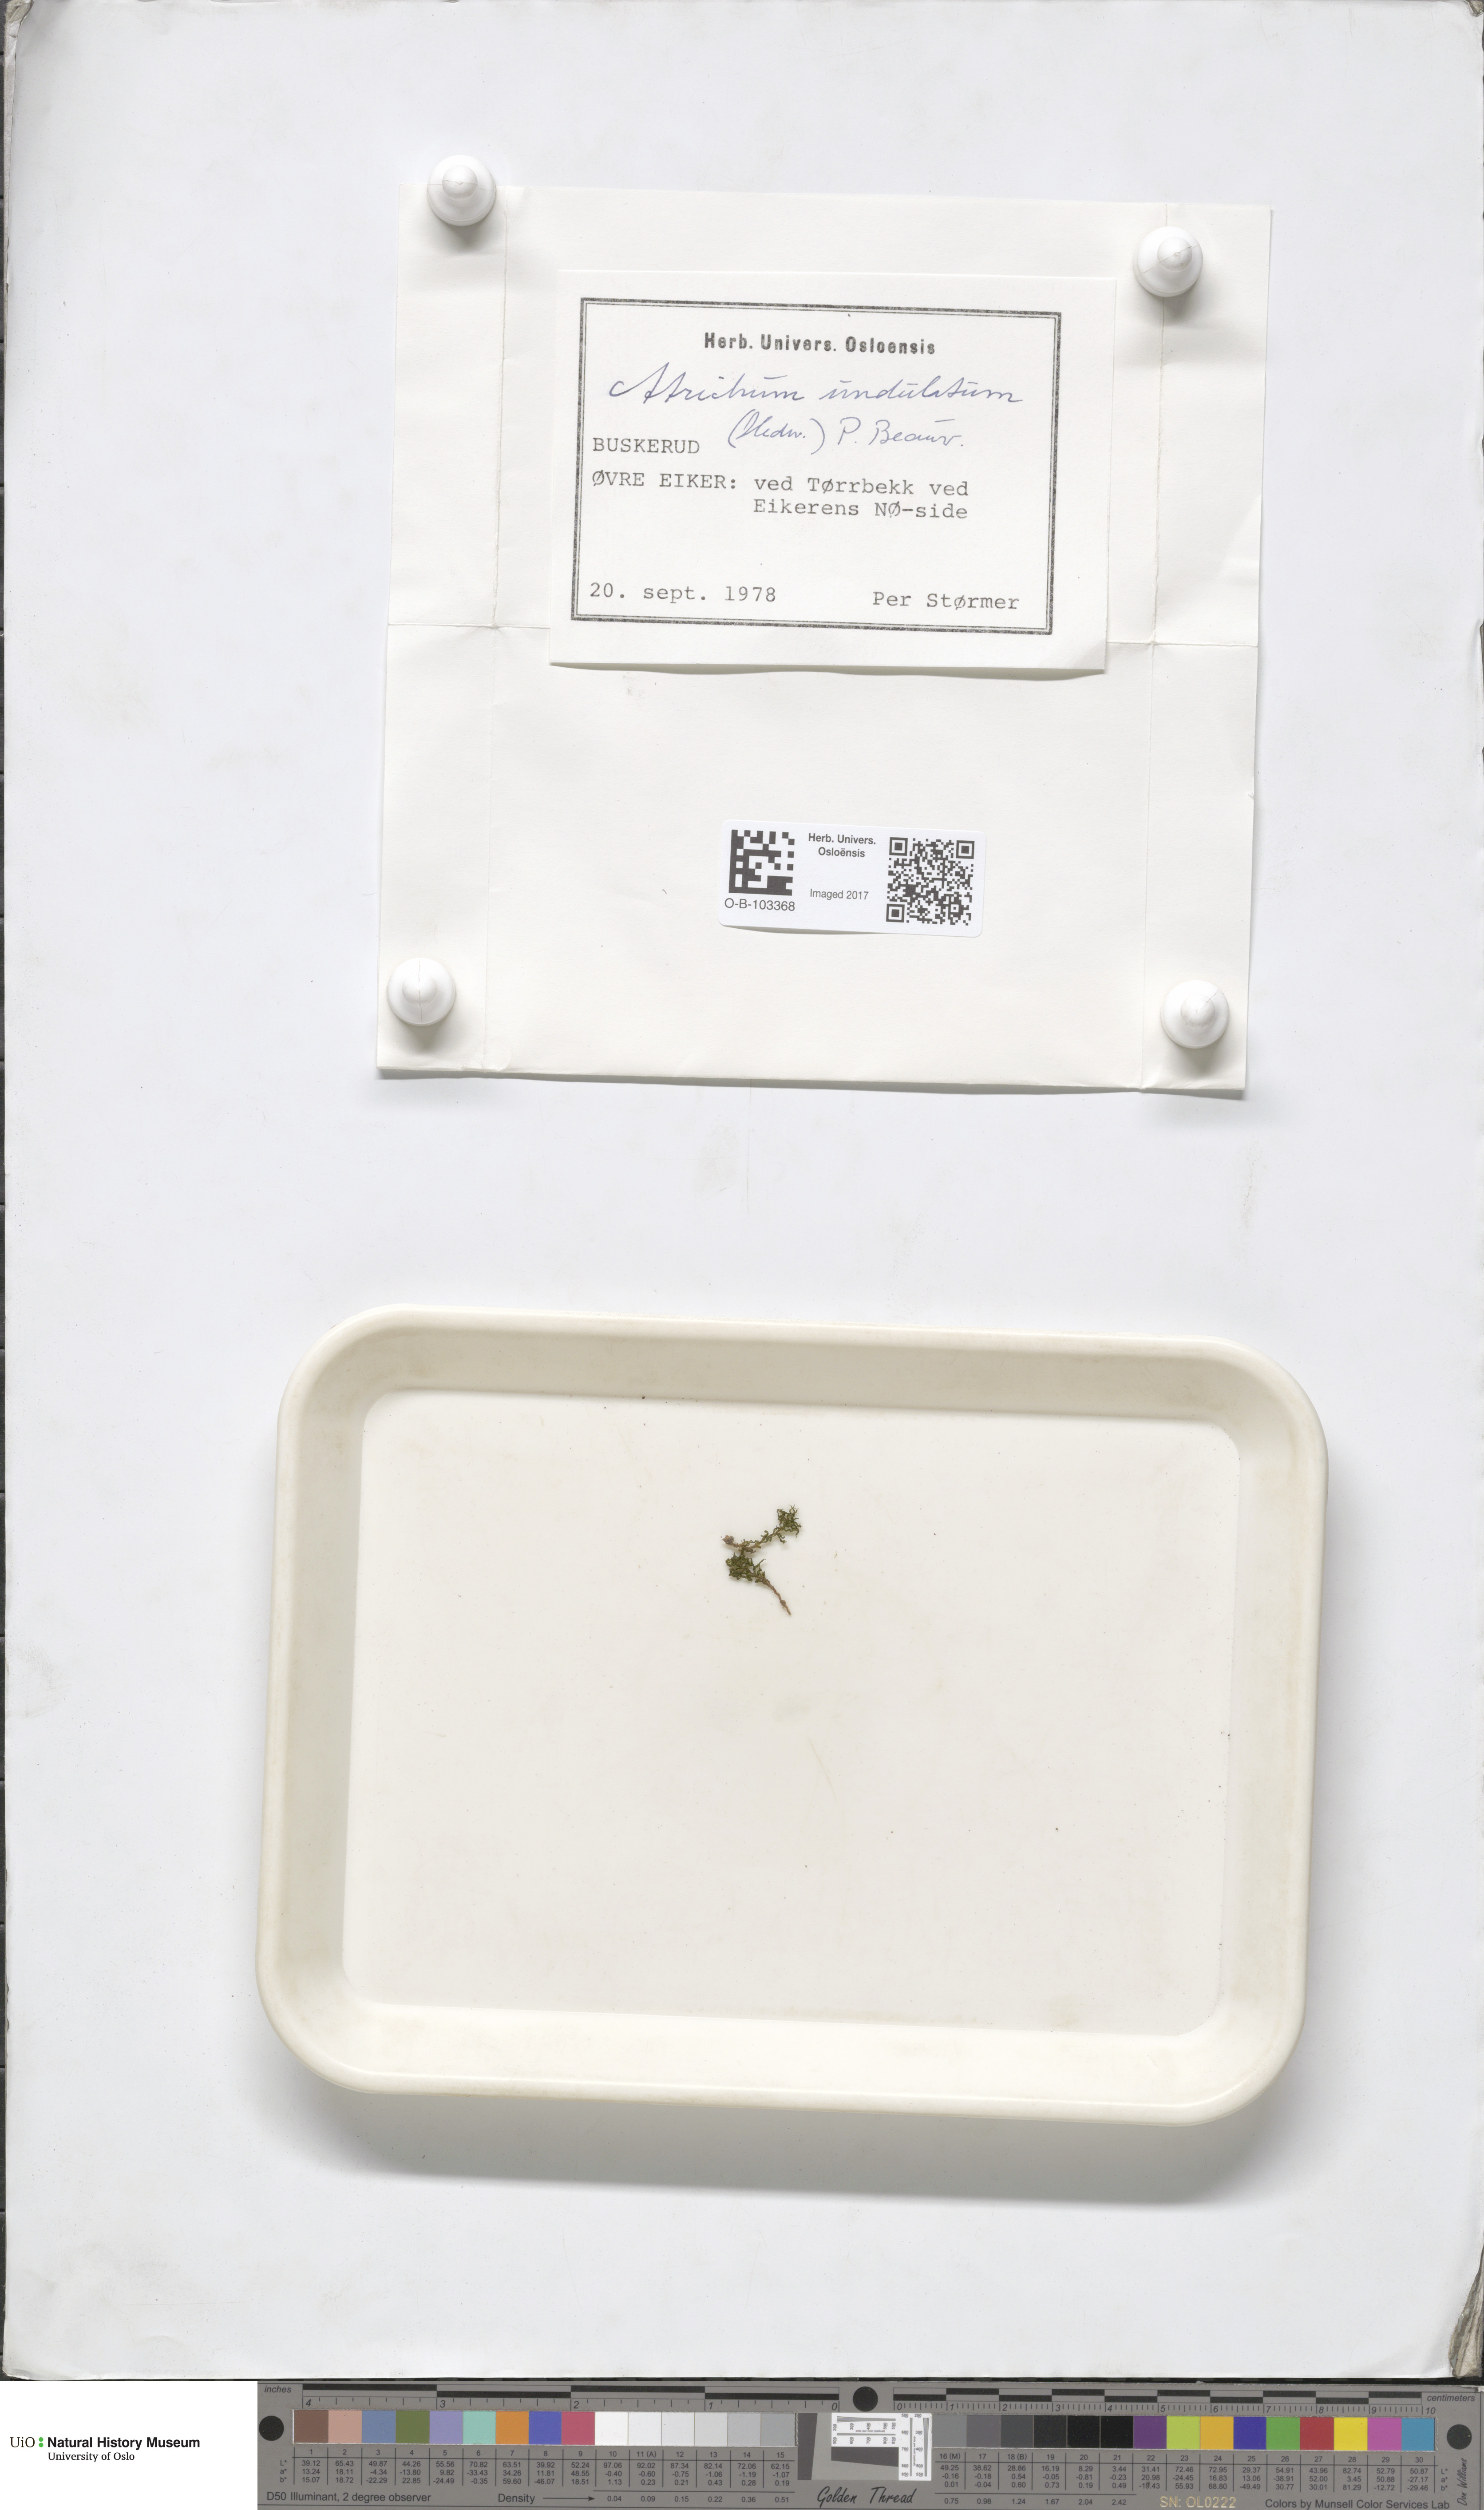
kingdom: Plantae
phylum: Bryophyta
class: Polytrichopsida
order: Polytrichales
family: Polytrichaceae
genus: Atrichum
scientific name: Atrichum undulatum
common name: Common smoothcap
